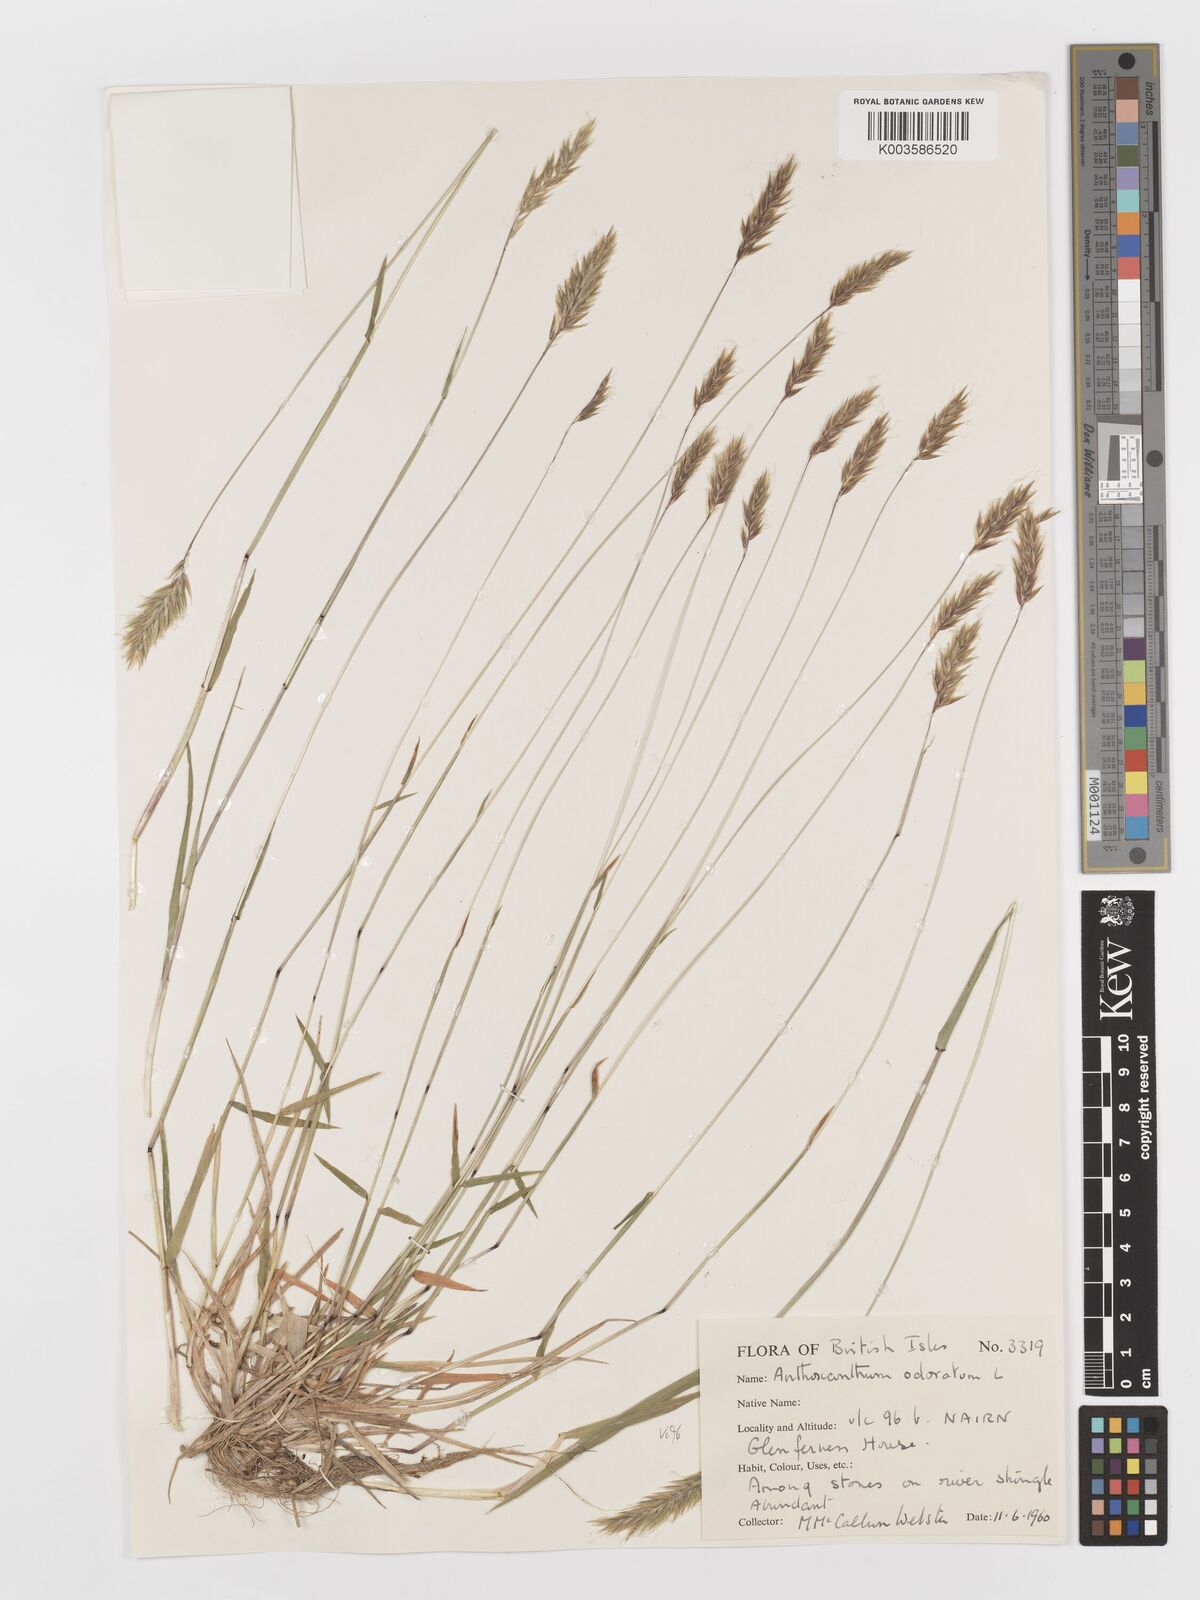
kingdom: Plantae
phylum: Tracheophyta
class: Liliopsida
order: Poales
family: Poaceae
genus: Anthoxanthum
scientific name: Anthoxanthum odoratum
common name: Sweet vernalgrass
